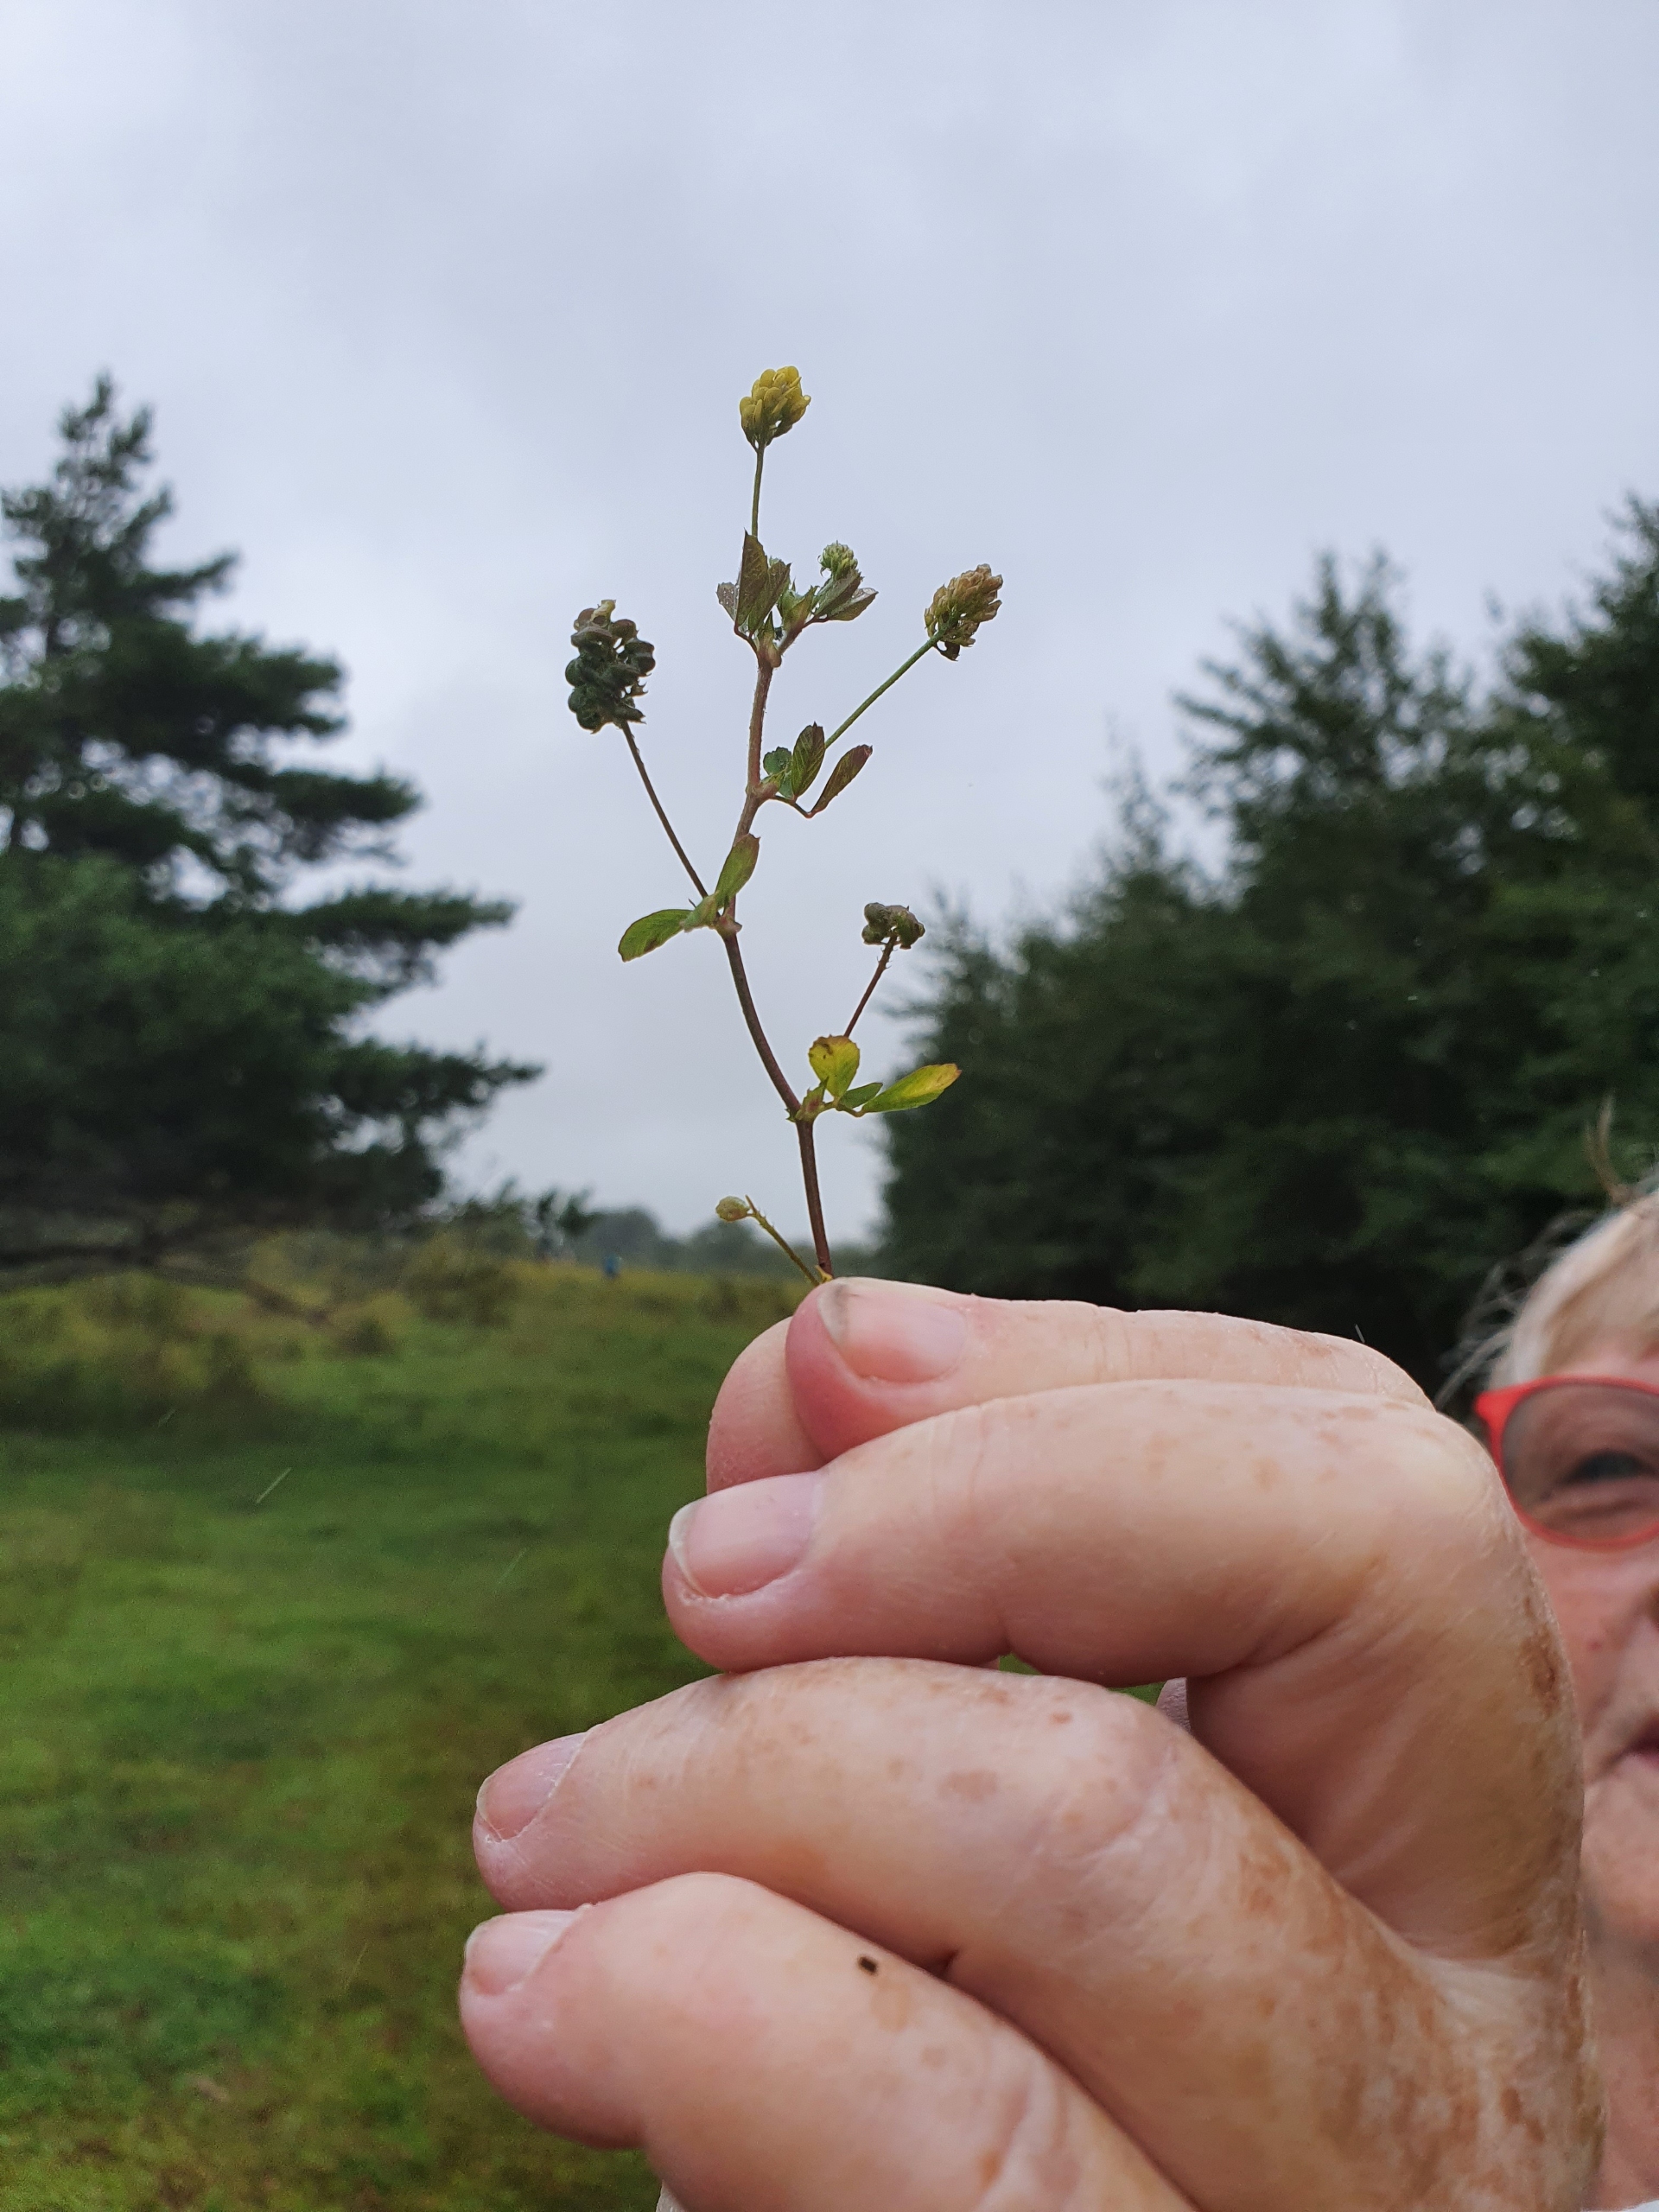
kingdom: Plantae
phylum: Tracheophyta
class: Magnoliopsida
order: Fabales
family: Fabaceae
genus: Medicago
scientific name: Medicago lupulina
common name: Humle-sneglebælg
